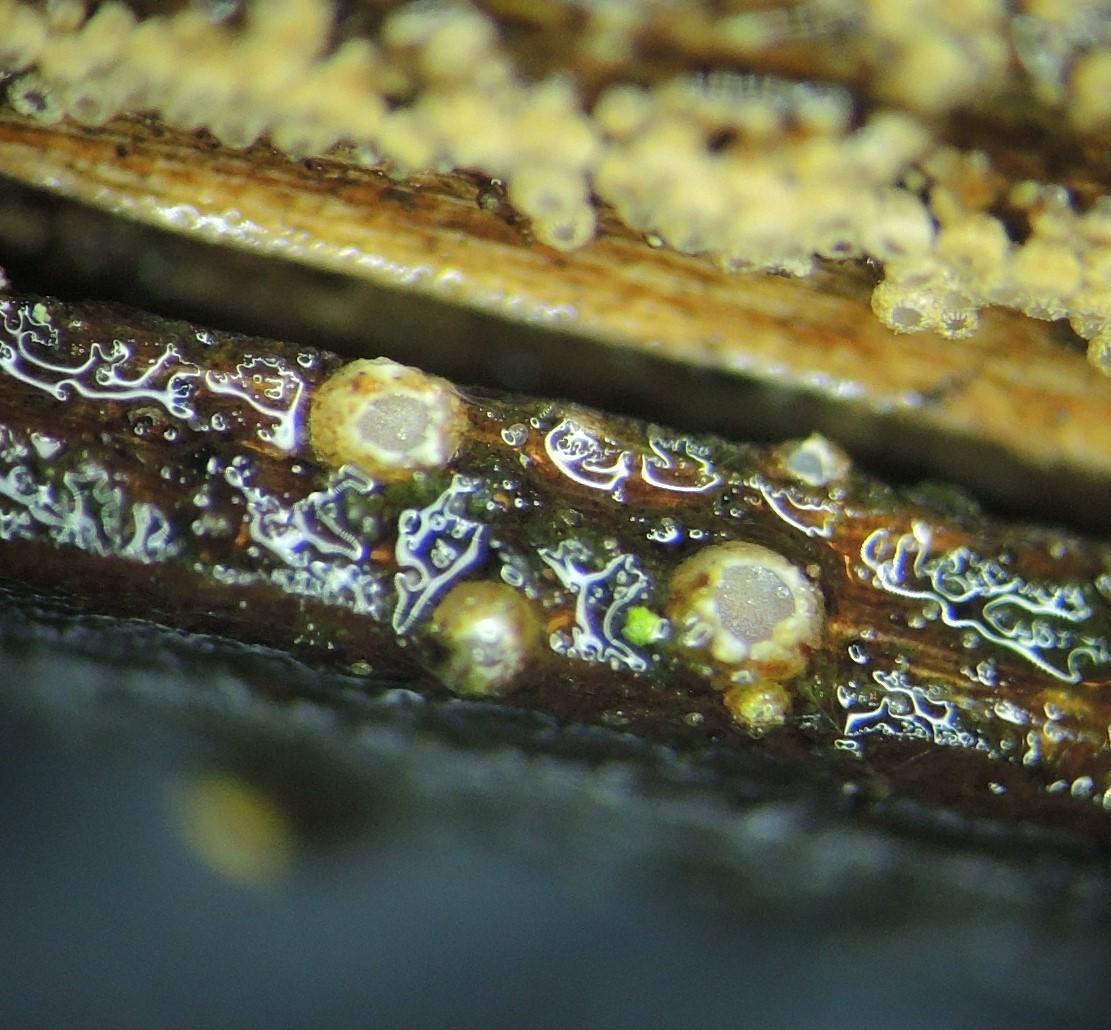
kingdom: Fungi
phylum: Ascomycota
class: Lecanoromycetes
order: Ostropales
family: Stictidaceae
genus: Karstenia
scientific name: Karstenia rhopaloides
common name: grårosa barkhul
